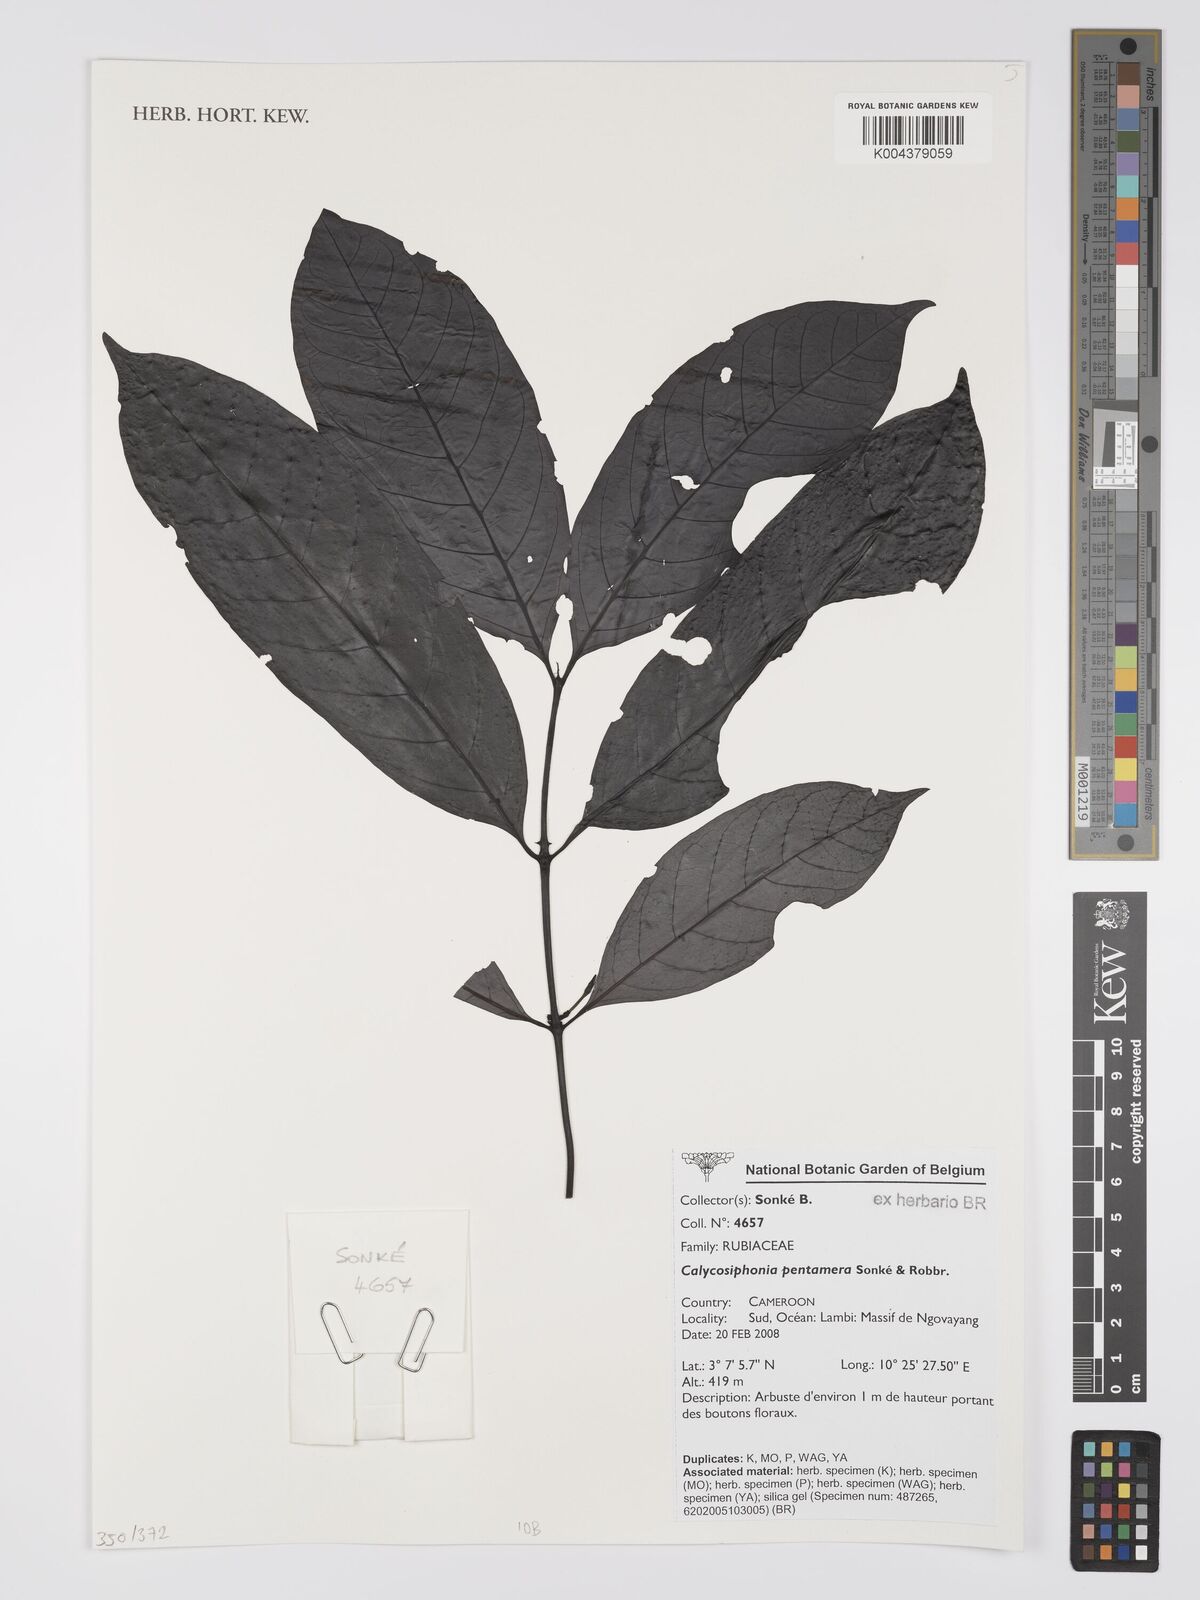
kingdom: Plantae
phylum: Tracheophyta
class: Magnoliopsida
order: Gentianales
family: Rubiaceae
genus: Kupeantha
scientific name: Kupeantha pentamera
